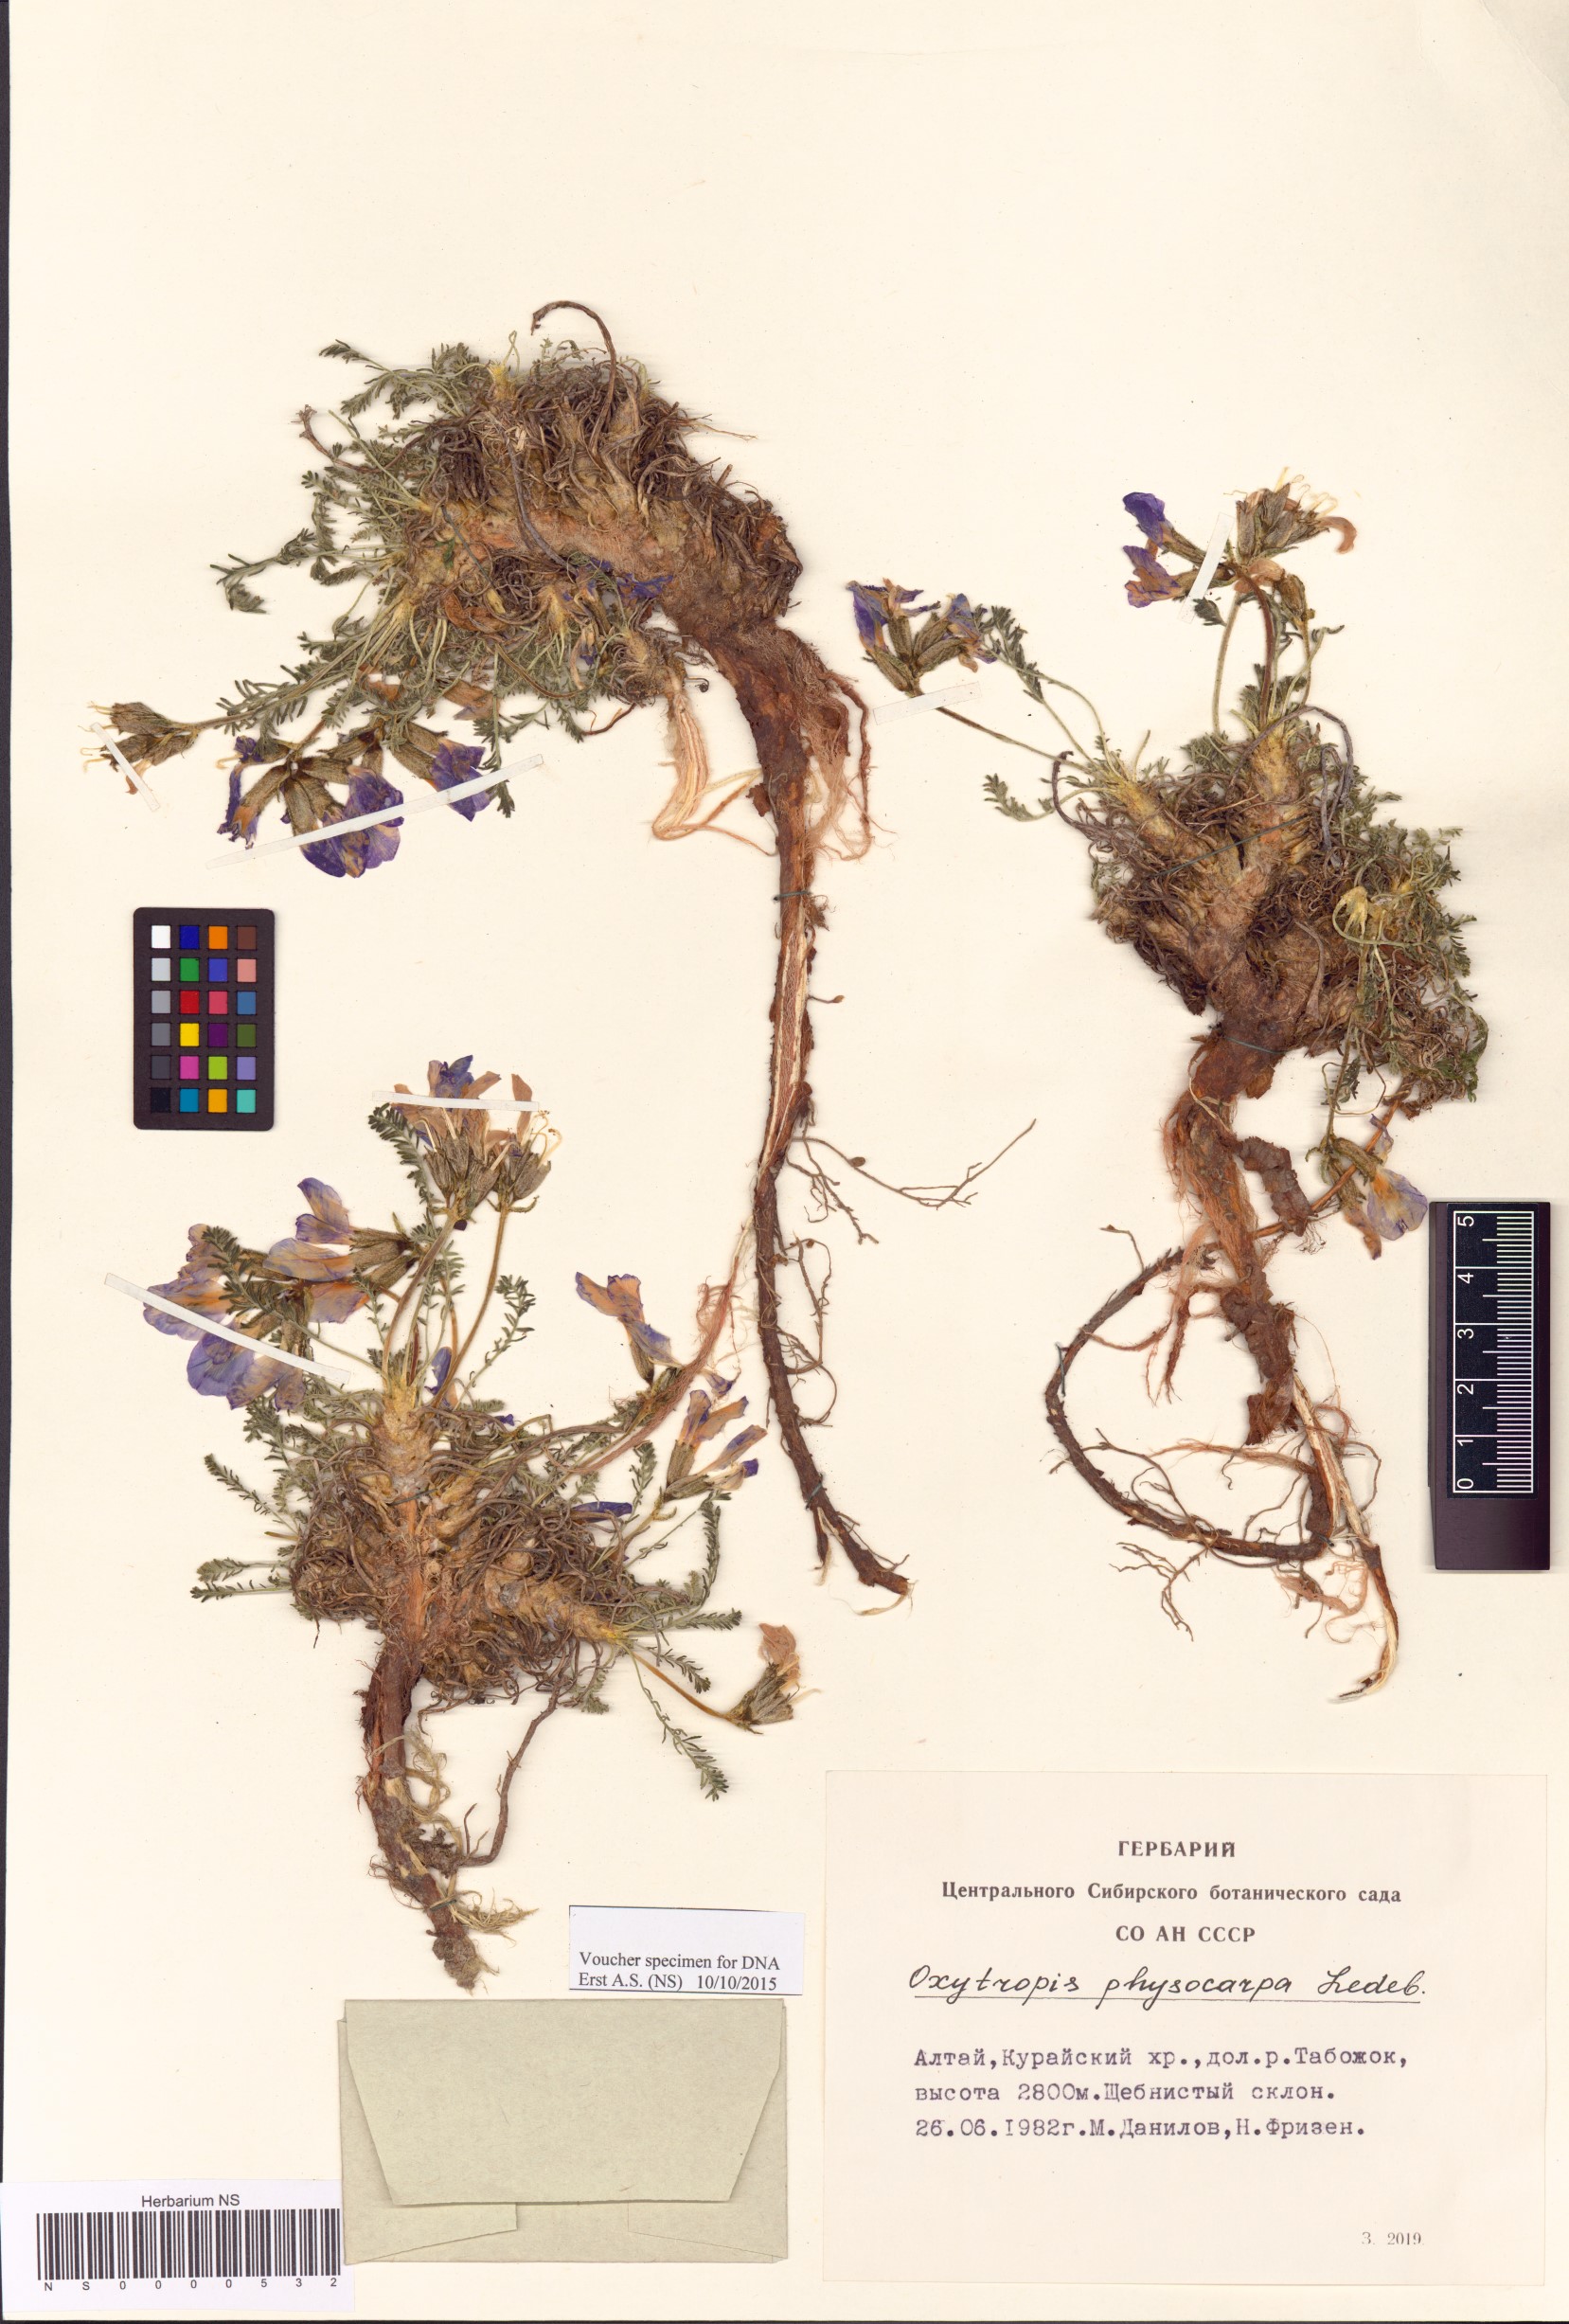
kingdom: Plantae
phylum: Tracheophyta
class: Magnoliopsida
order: Fabales
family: Fabaceae
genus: Oxytropis
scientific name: Oxytropis physocarpa
